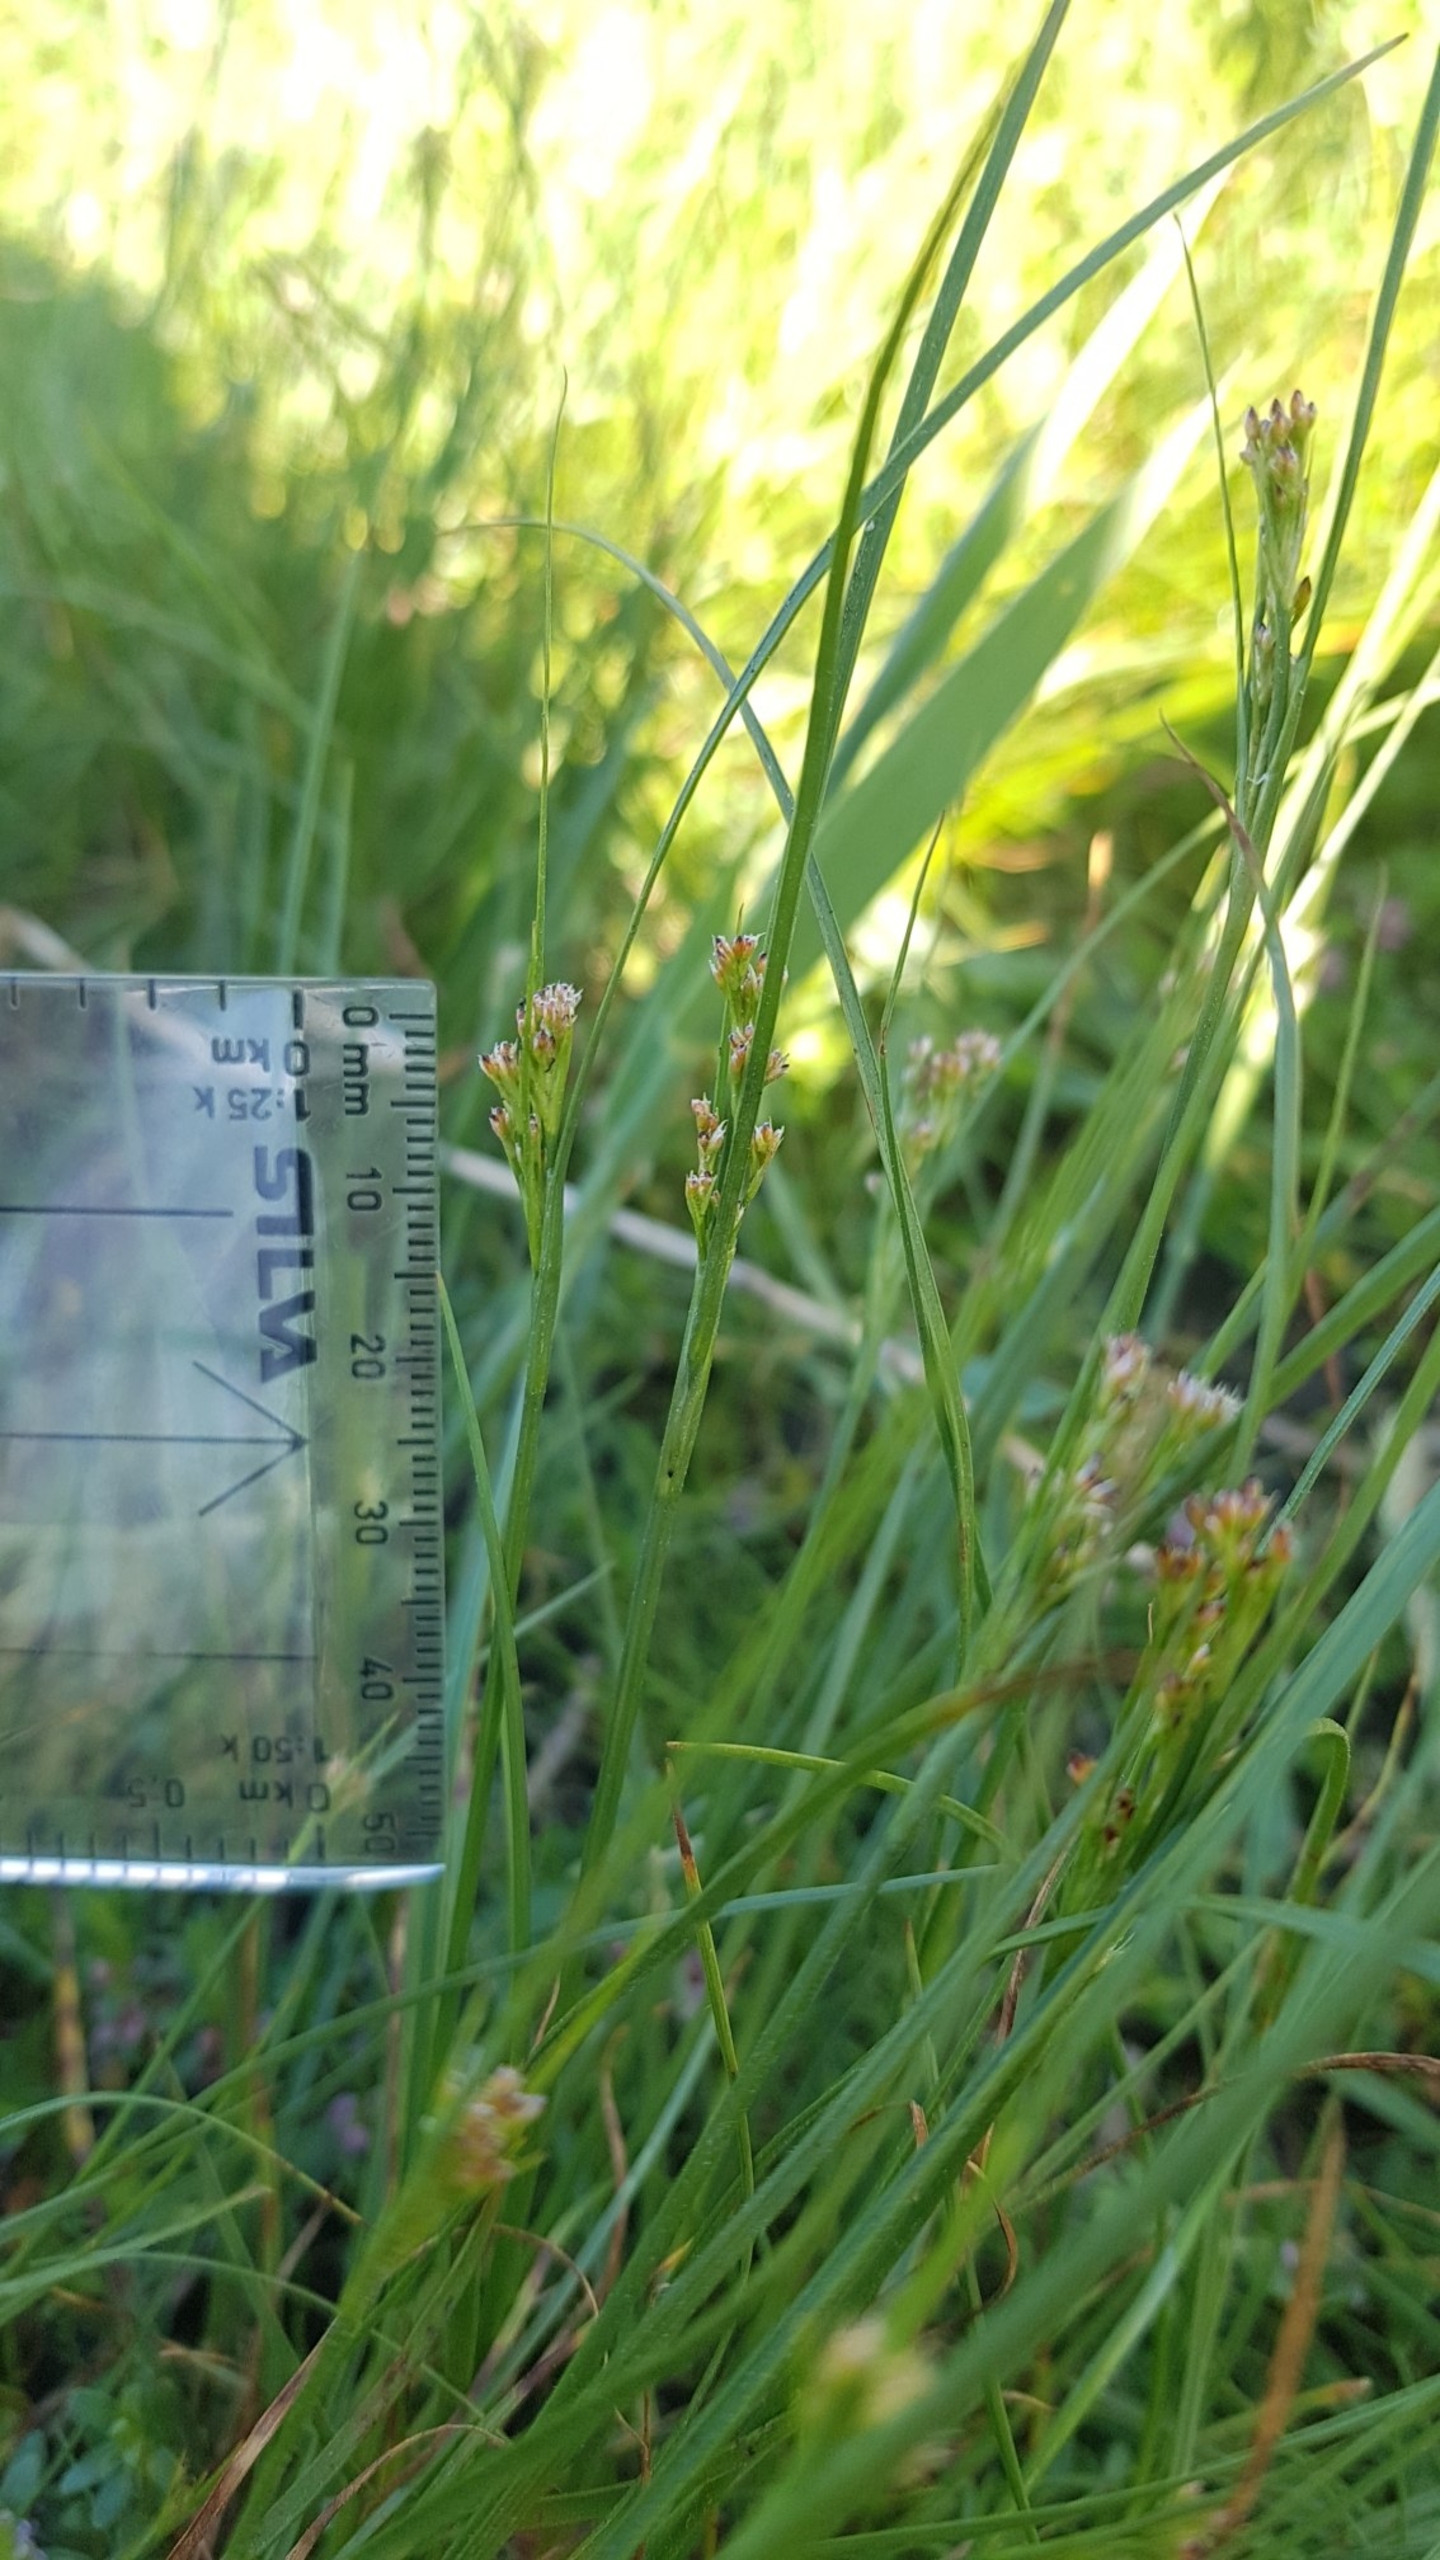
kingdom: Plantae
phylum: Tracheophyta
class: Liliopsida
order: Poales
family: Juncaceae
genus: Juncus
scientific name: Juncus gerardi
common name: Harril
